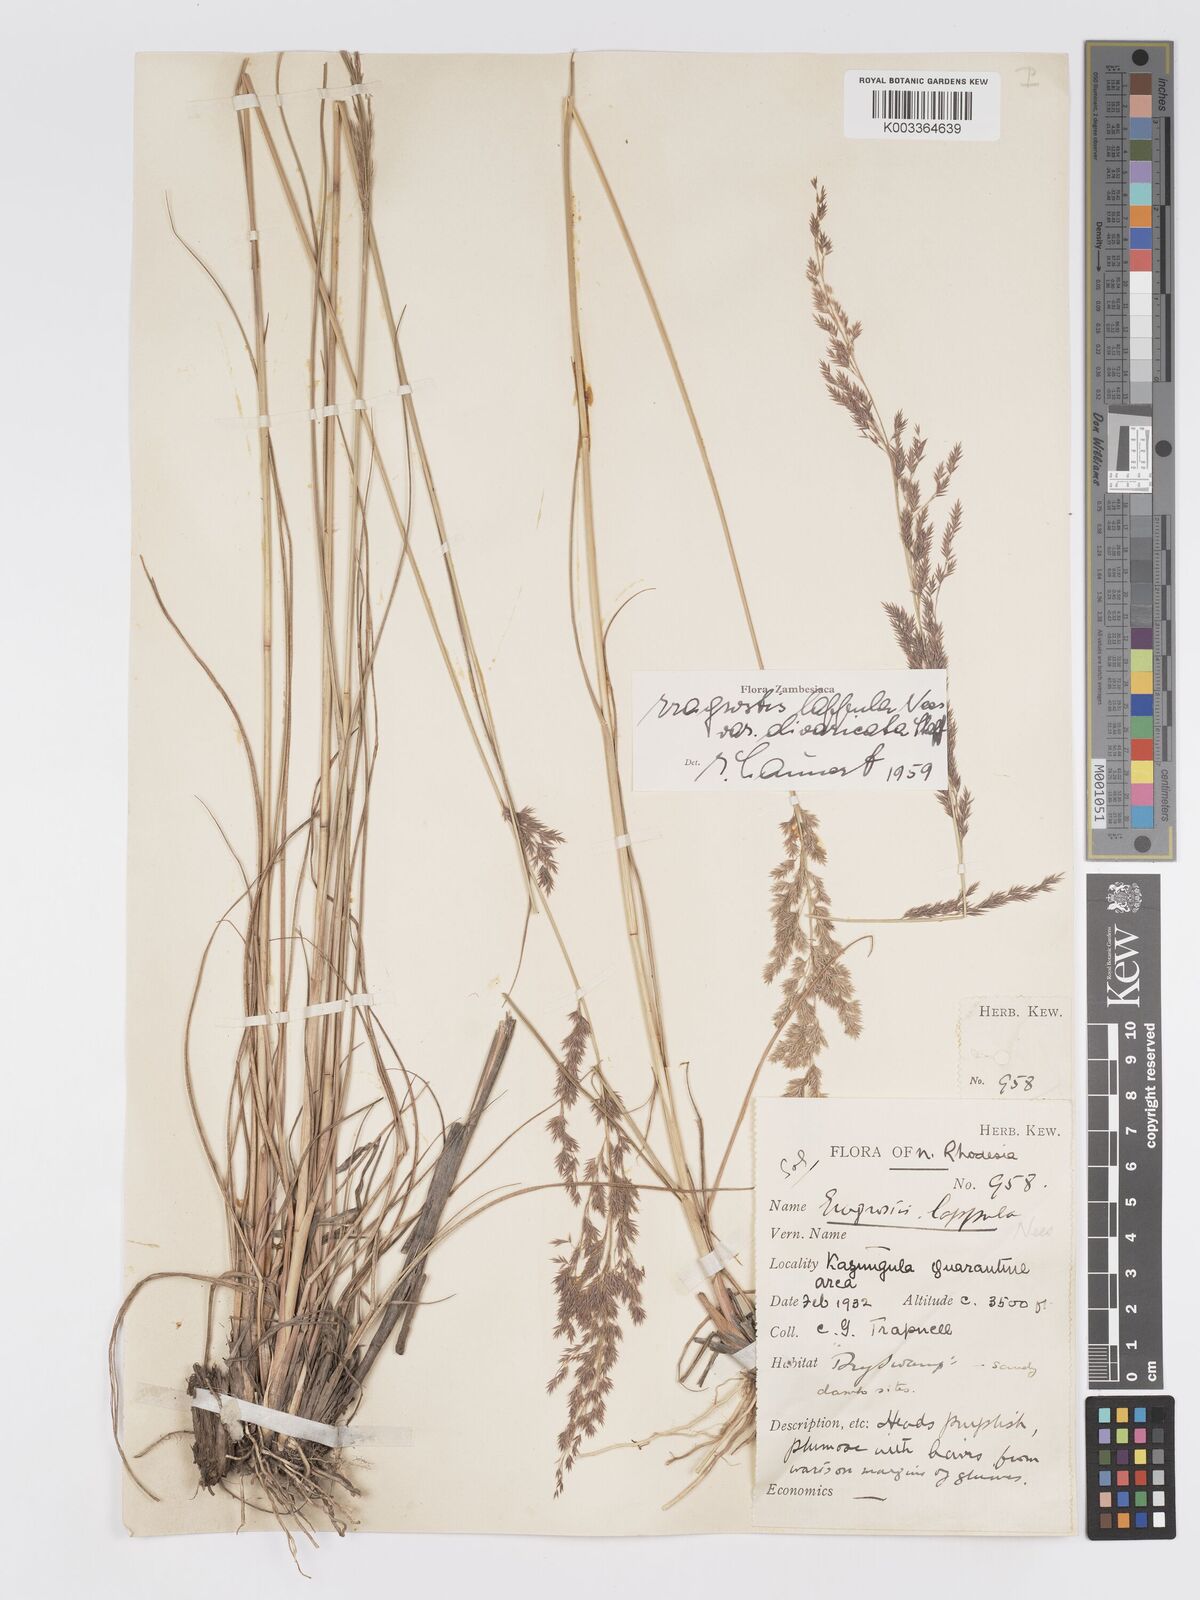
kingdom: Plantae
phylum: Tracheophyta
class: Liliopsida
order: Poales
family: Poaceae
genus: Eragrostis
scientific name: Eragrostis lappula
